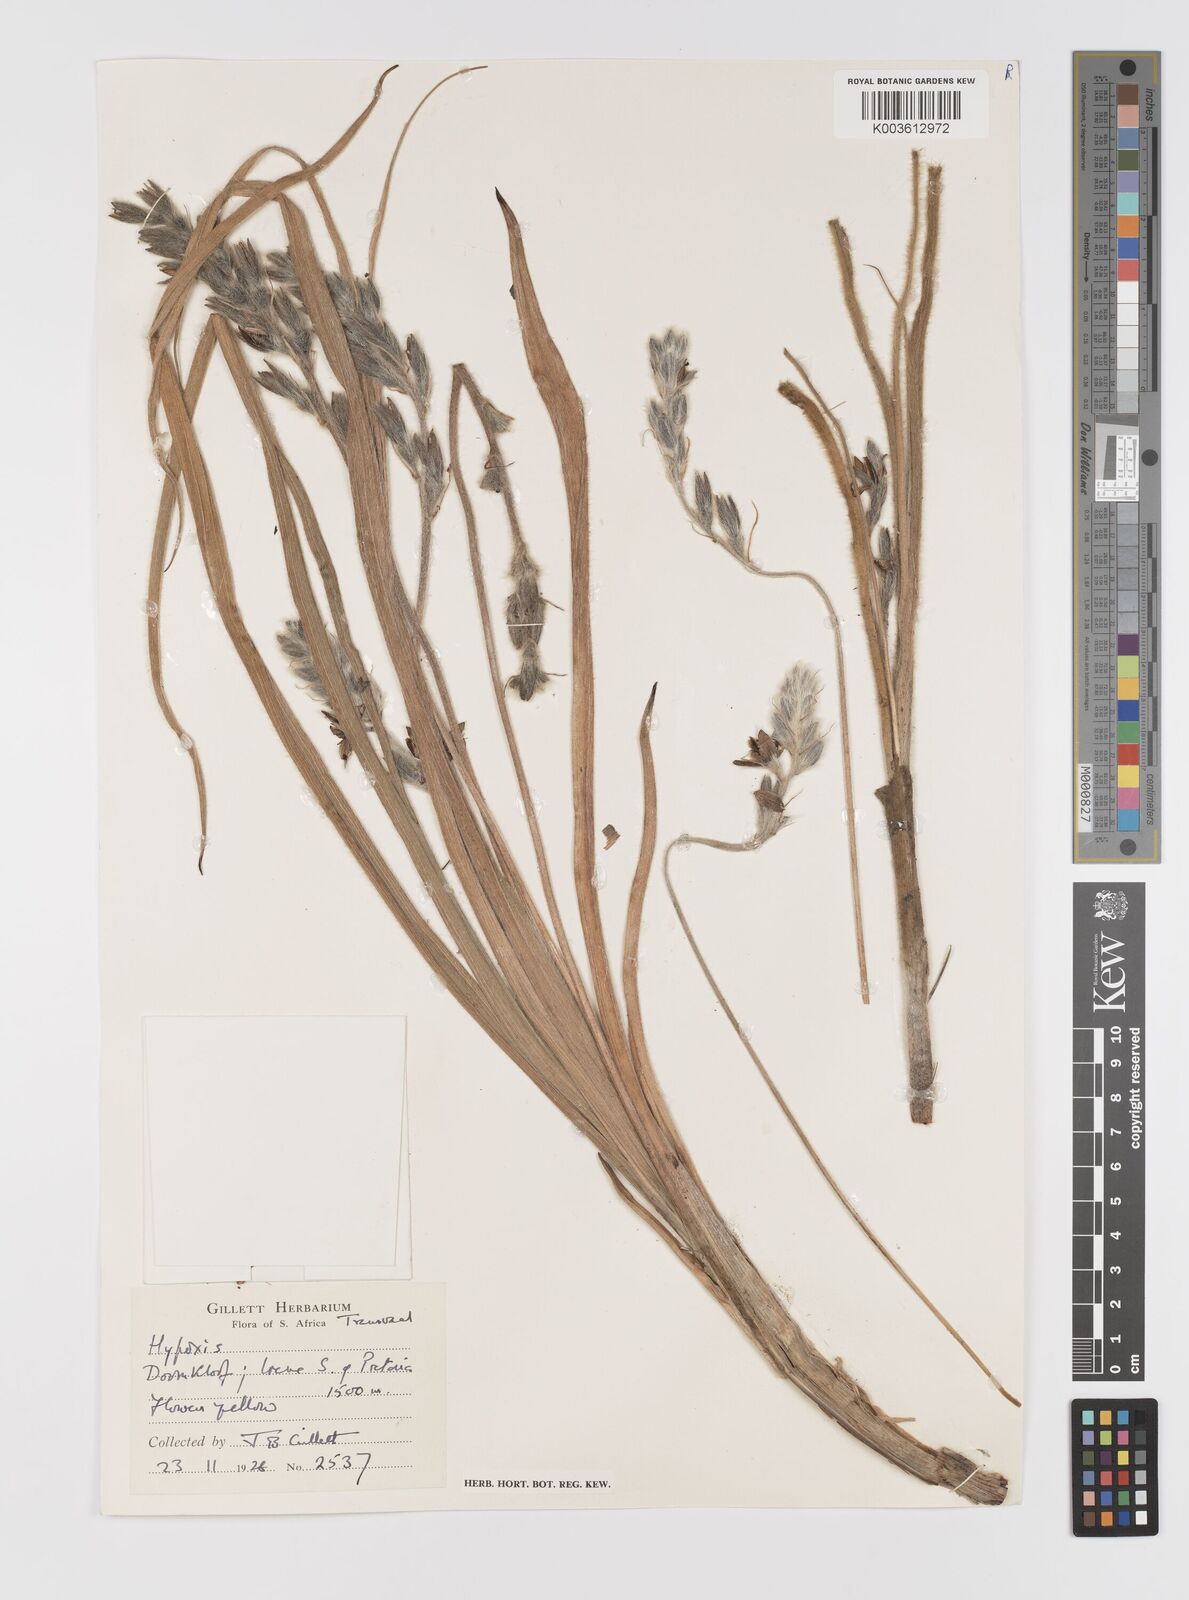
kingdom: Plantae
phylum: Tracheophyta
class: Liliopsida
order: Asparagales
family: Hypoxidaceae
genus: Hypoxis
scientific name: Hypoxis rigidula
